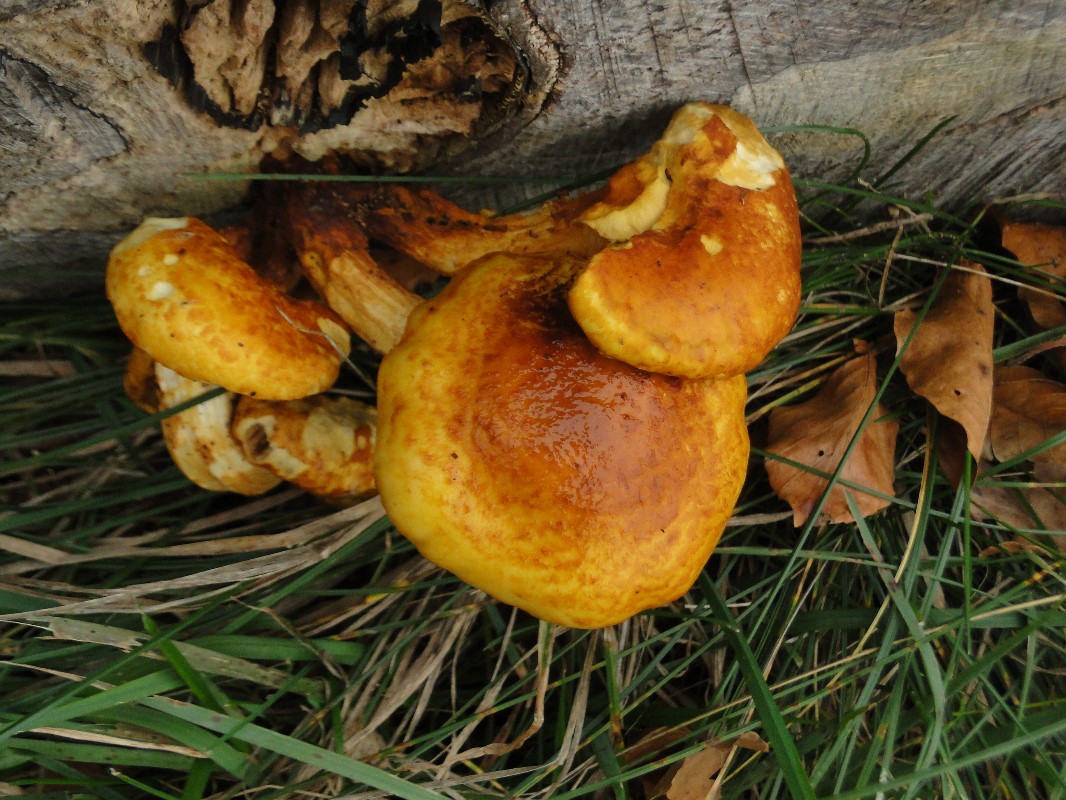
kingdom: Fungi
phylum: Basidiomycota
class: Agaricomycetes
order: Agaricales
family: Strophariaceae
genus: Pholiota
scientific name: Pholiota adiposa
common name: højtsiddende skælhat
